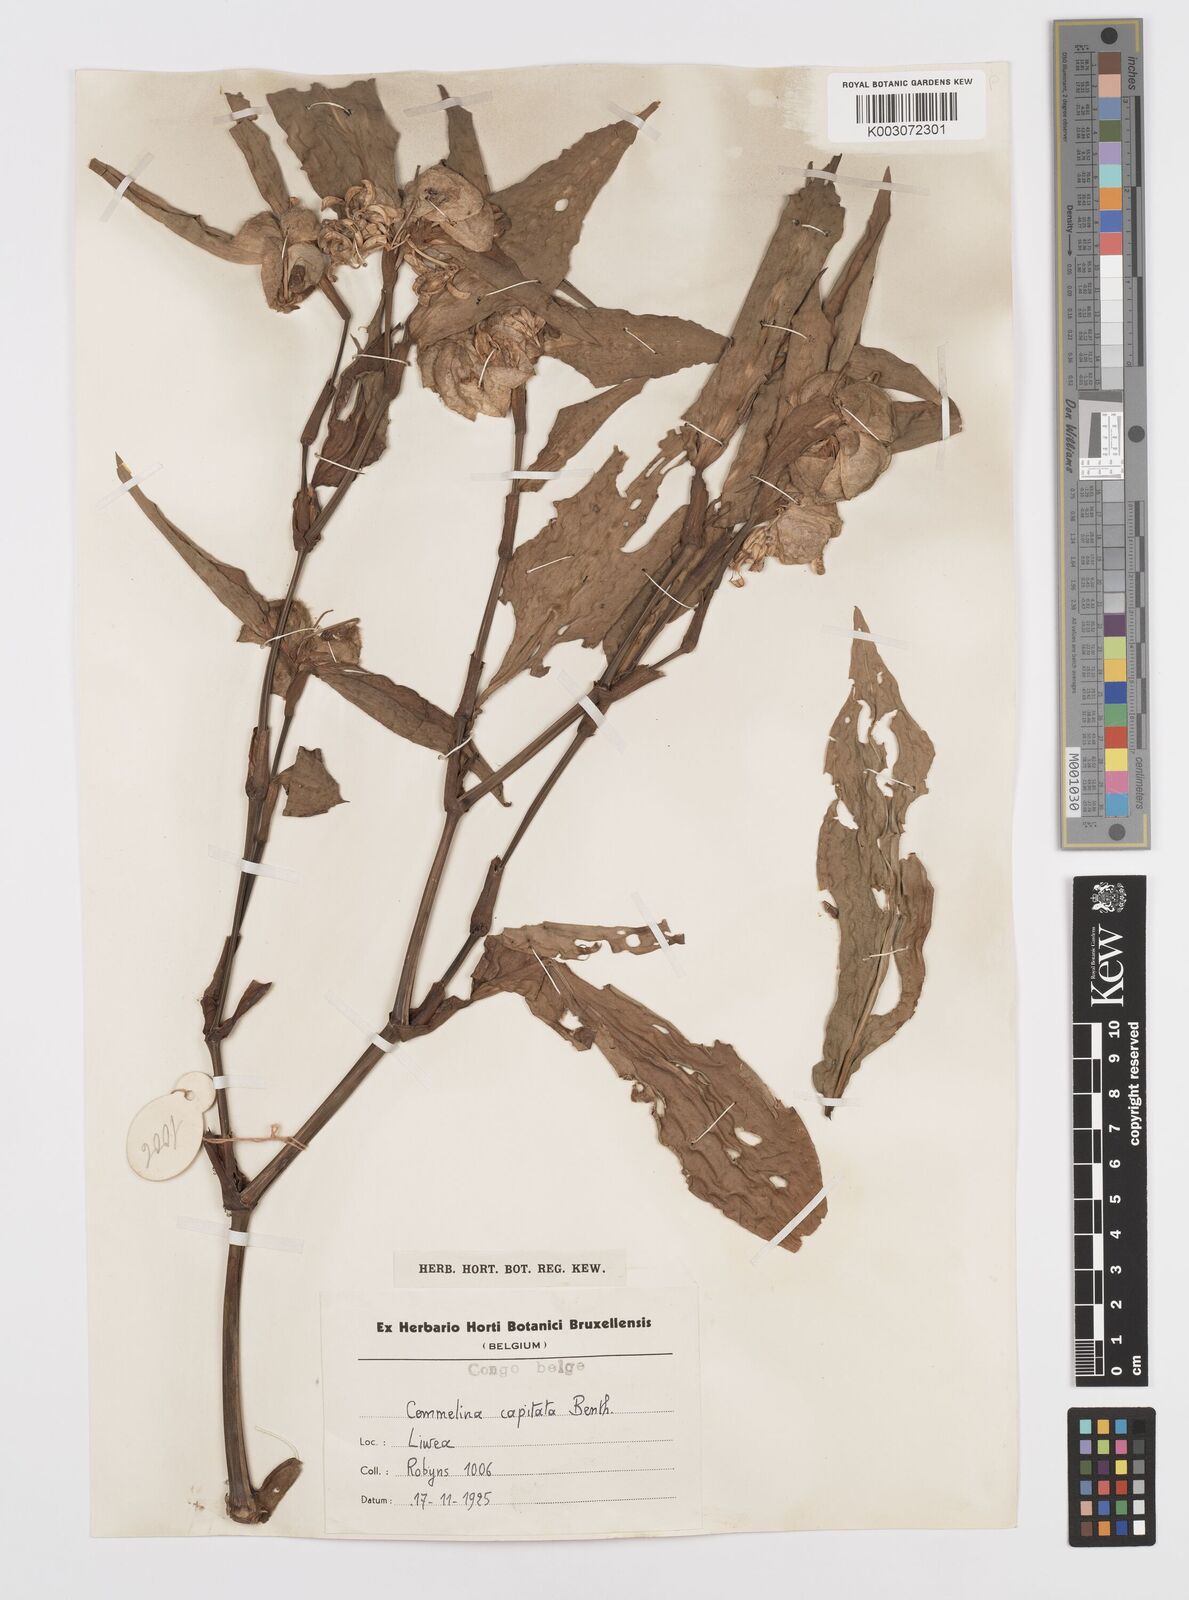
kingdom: Plantae
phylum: Tracheophyta
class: Liliopsida
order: Commelinales
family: Commelinaceae
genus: Commelina
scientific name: Commelina capitata
